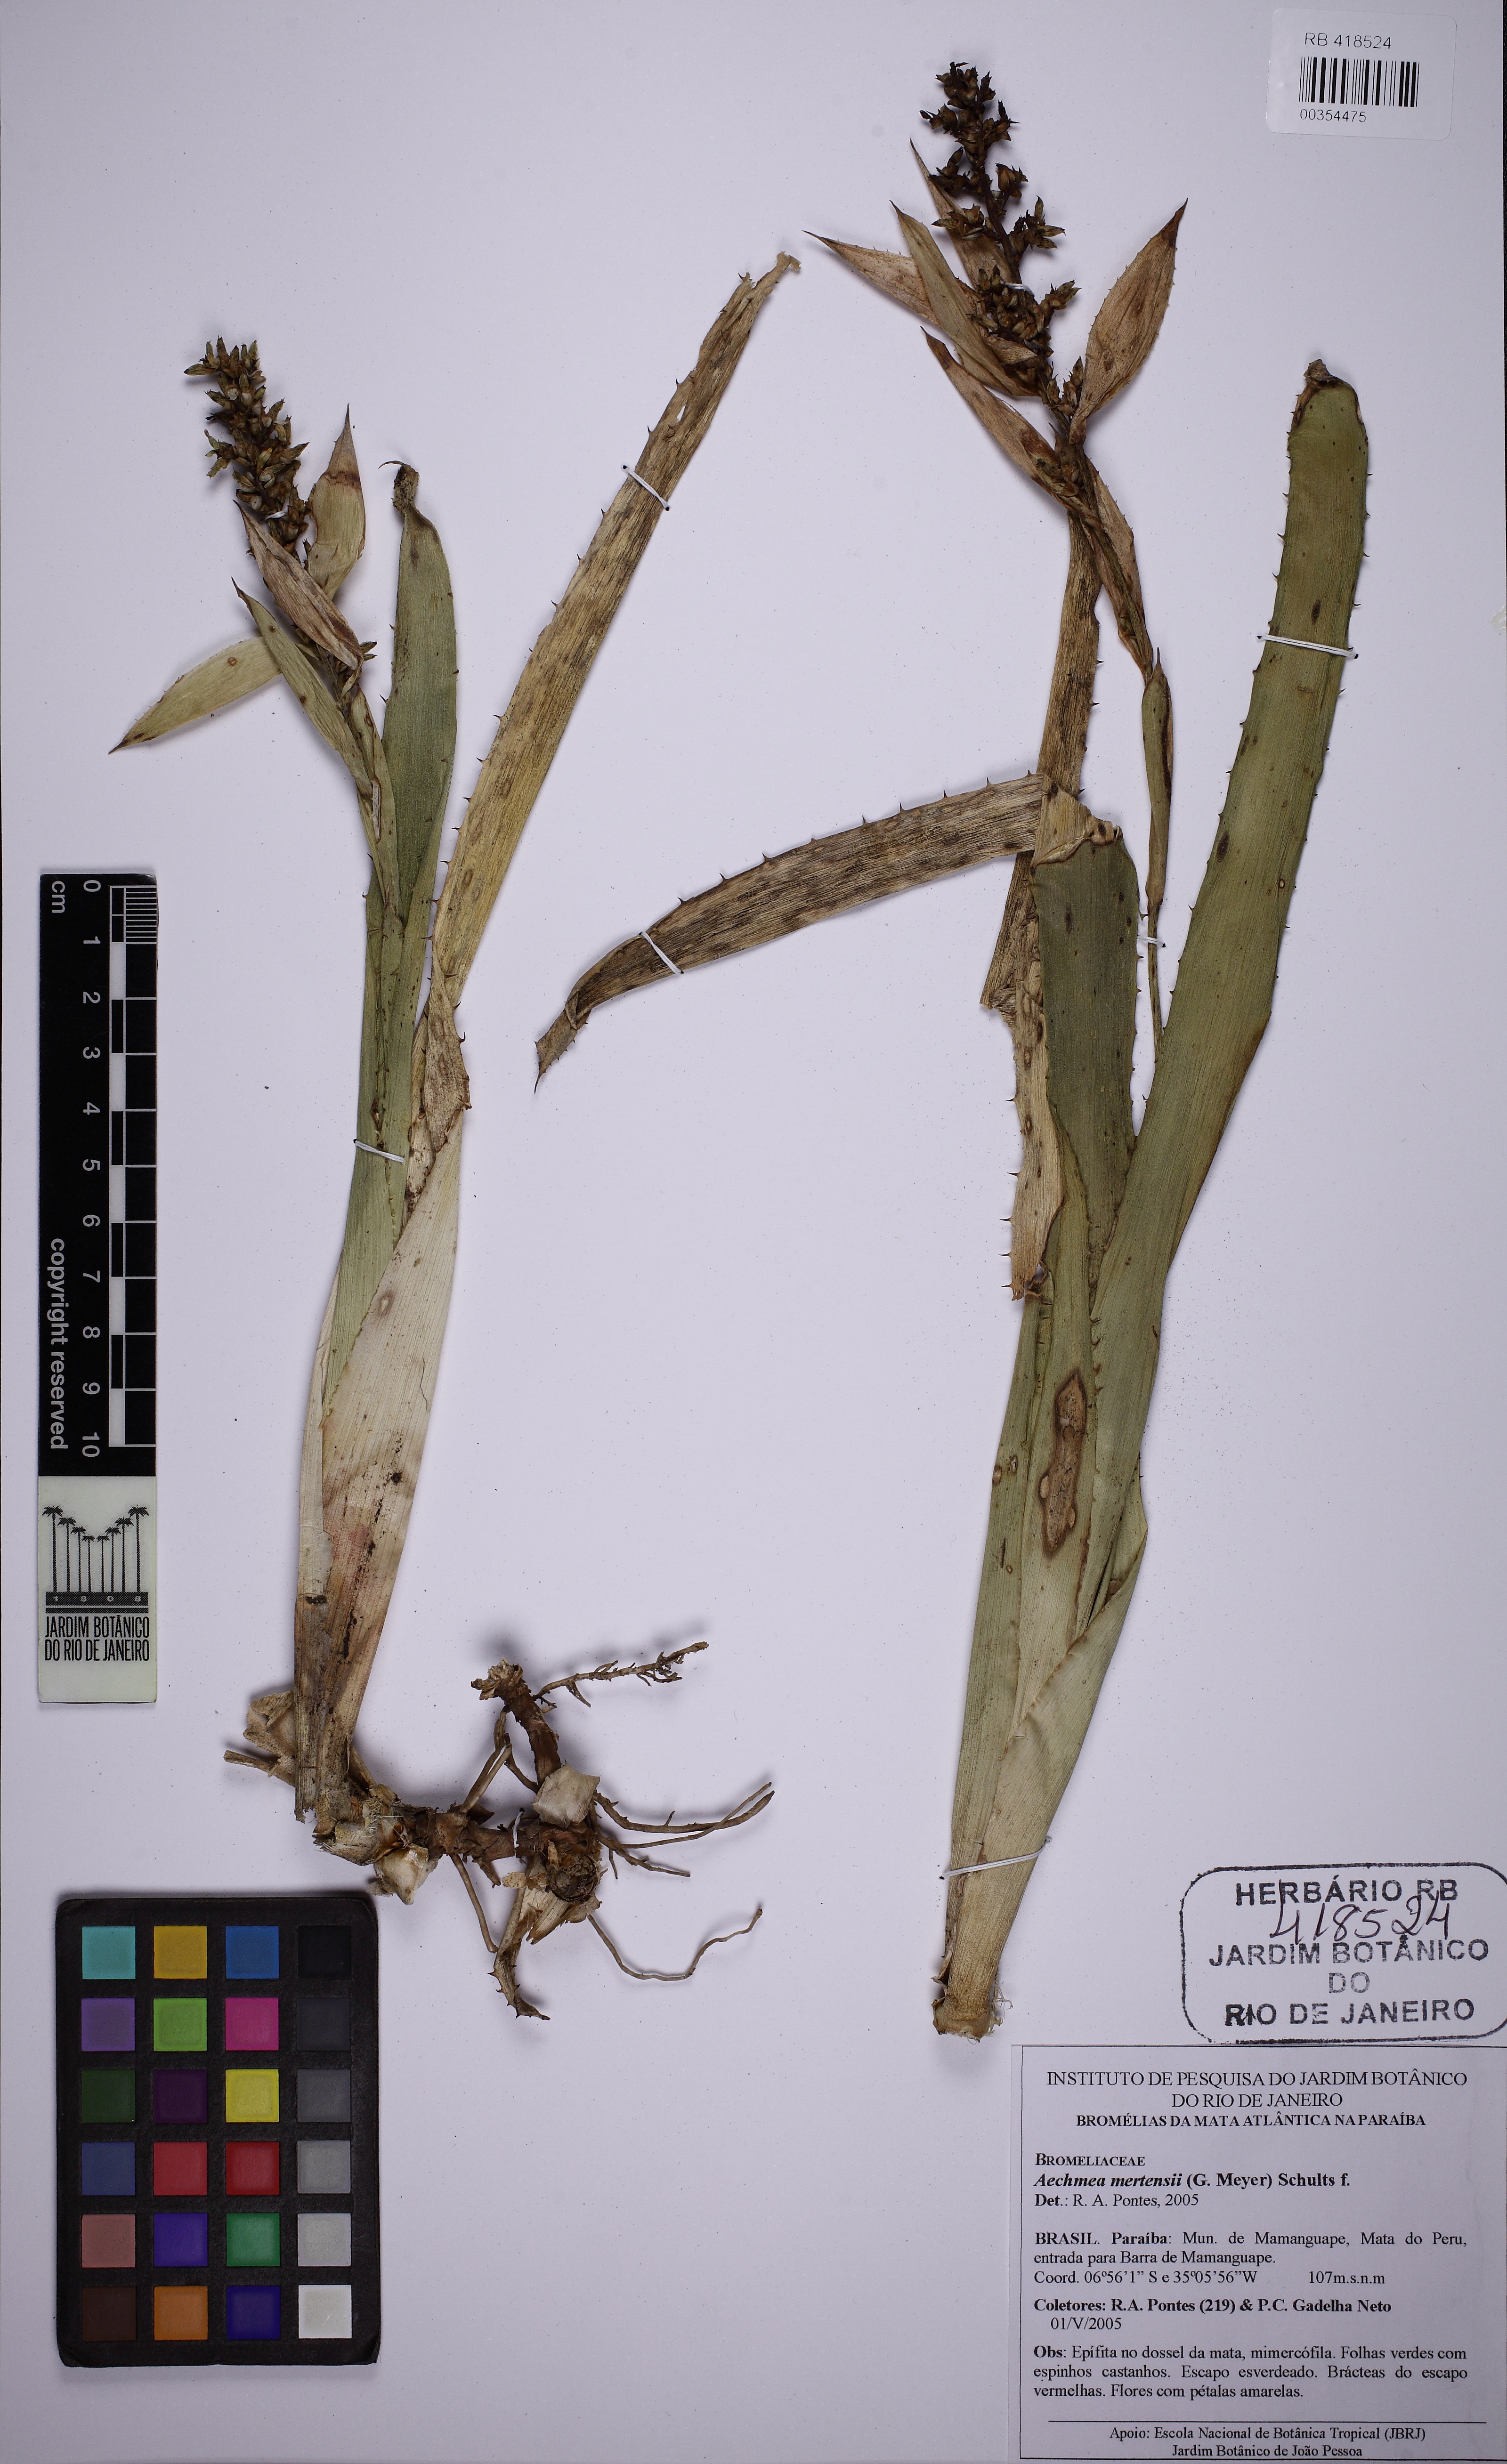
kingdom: Plantae
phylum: Tracheophyta
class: Liliopsida
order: Poales
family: Bromeliaceae
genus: Aechmea
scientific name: Aechmea mertensii
